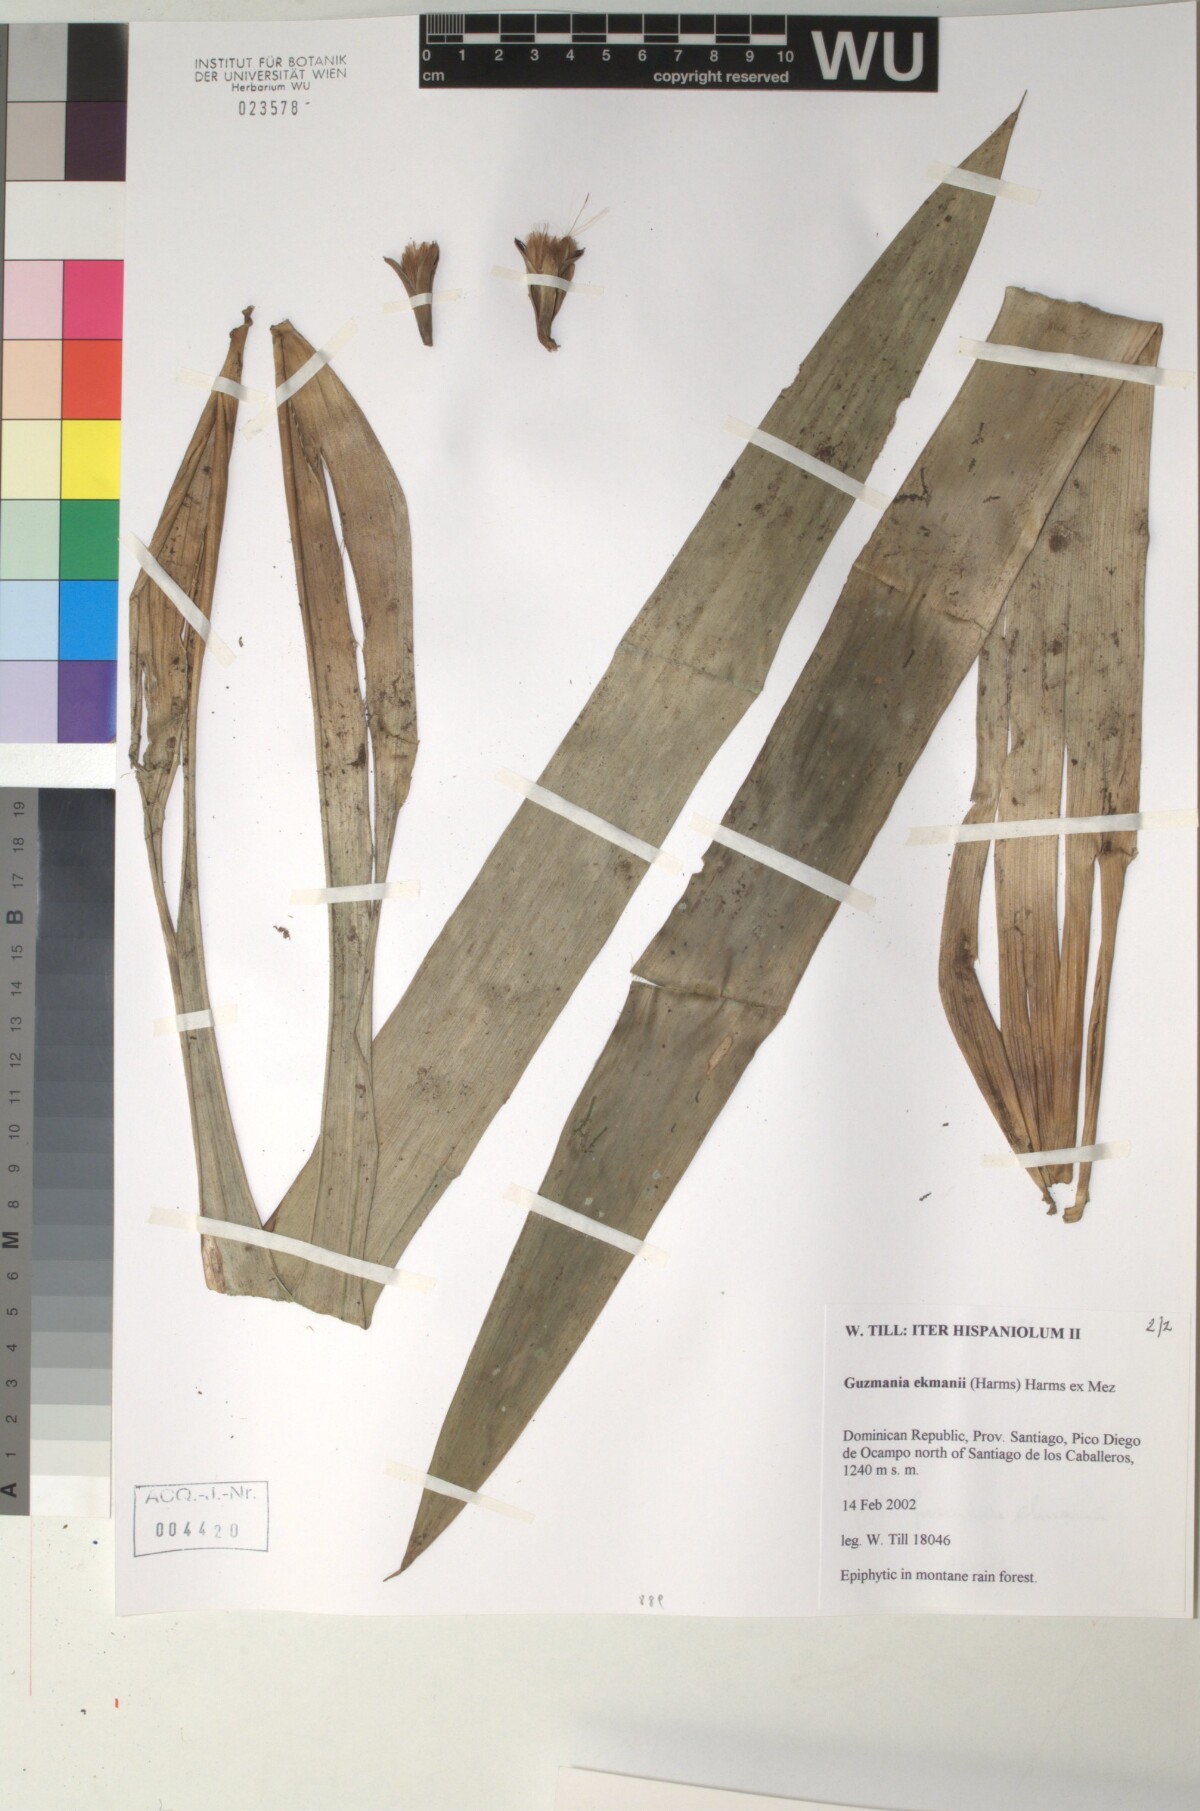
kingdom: Plantae
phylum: Tracheophyta
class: Liliopsida
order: Poales
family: Bromeliaceae
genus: Guzmania
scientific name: Guzmania ekmanii
